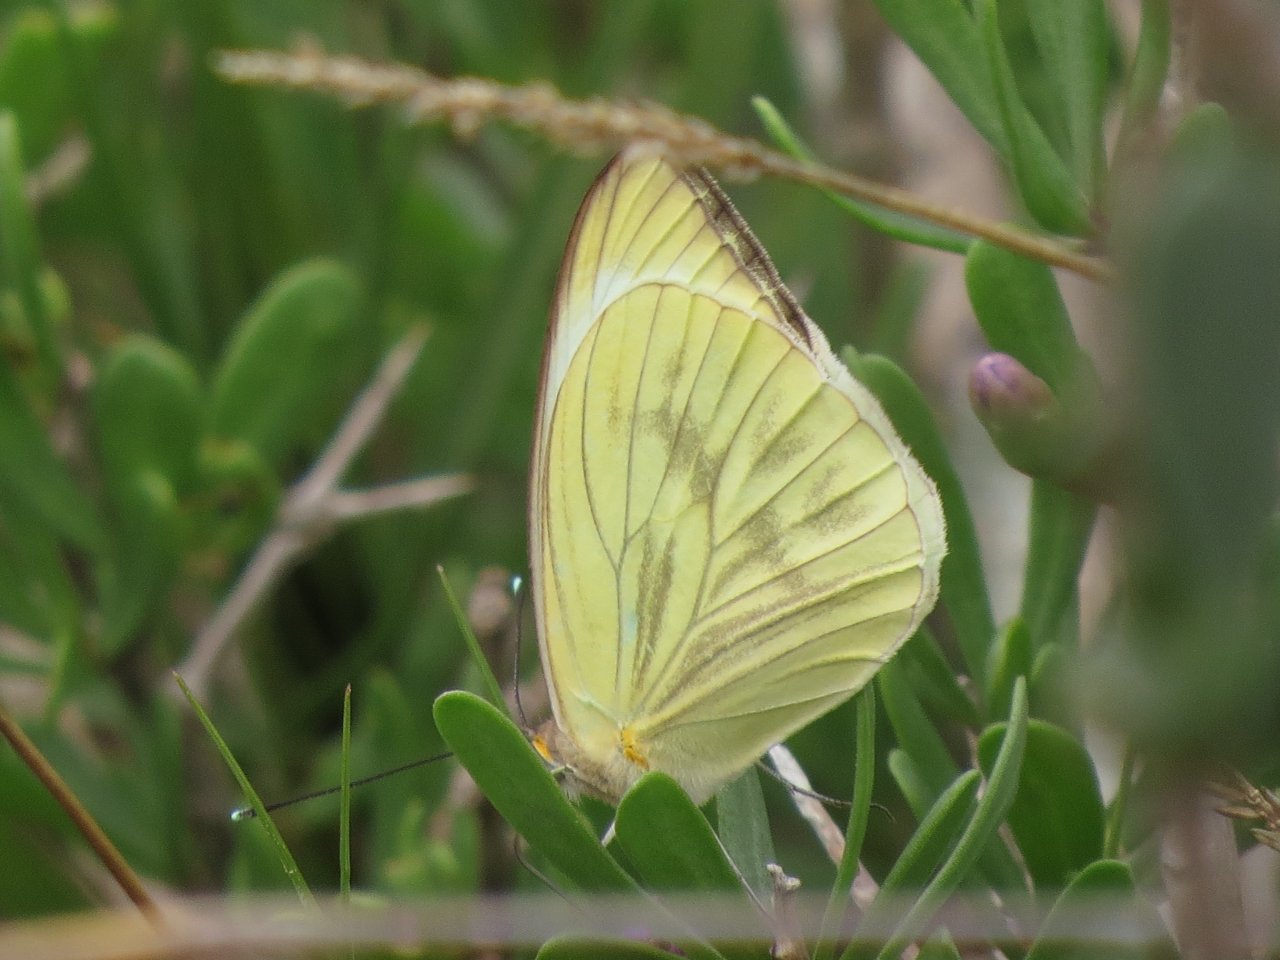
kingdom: Animalia
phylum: Arthropoda
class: Insecta
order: Lepidoptera
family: Pieridae
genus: Ascia
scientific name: Ascia monuste
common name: Great Southern White
